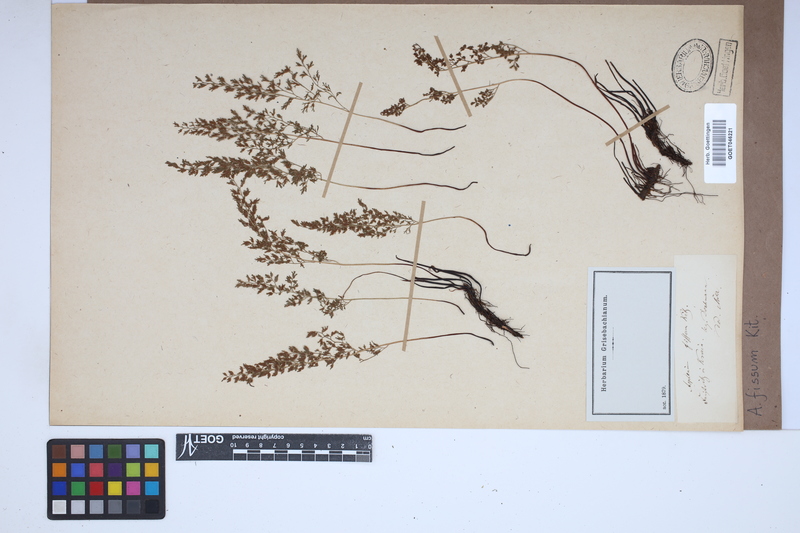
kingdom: Plantae
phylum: Tracheophyta
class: Polypodiopsida
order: Polypodiales
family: Aspleniaceae
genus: Asplenium
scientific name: Asplenium fissum
